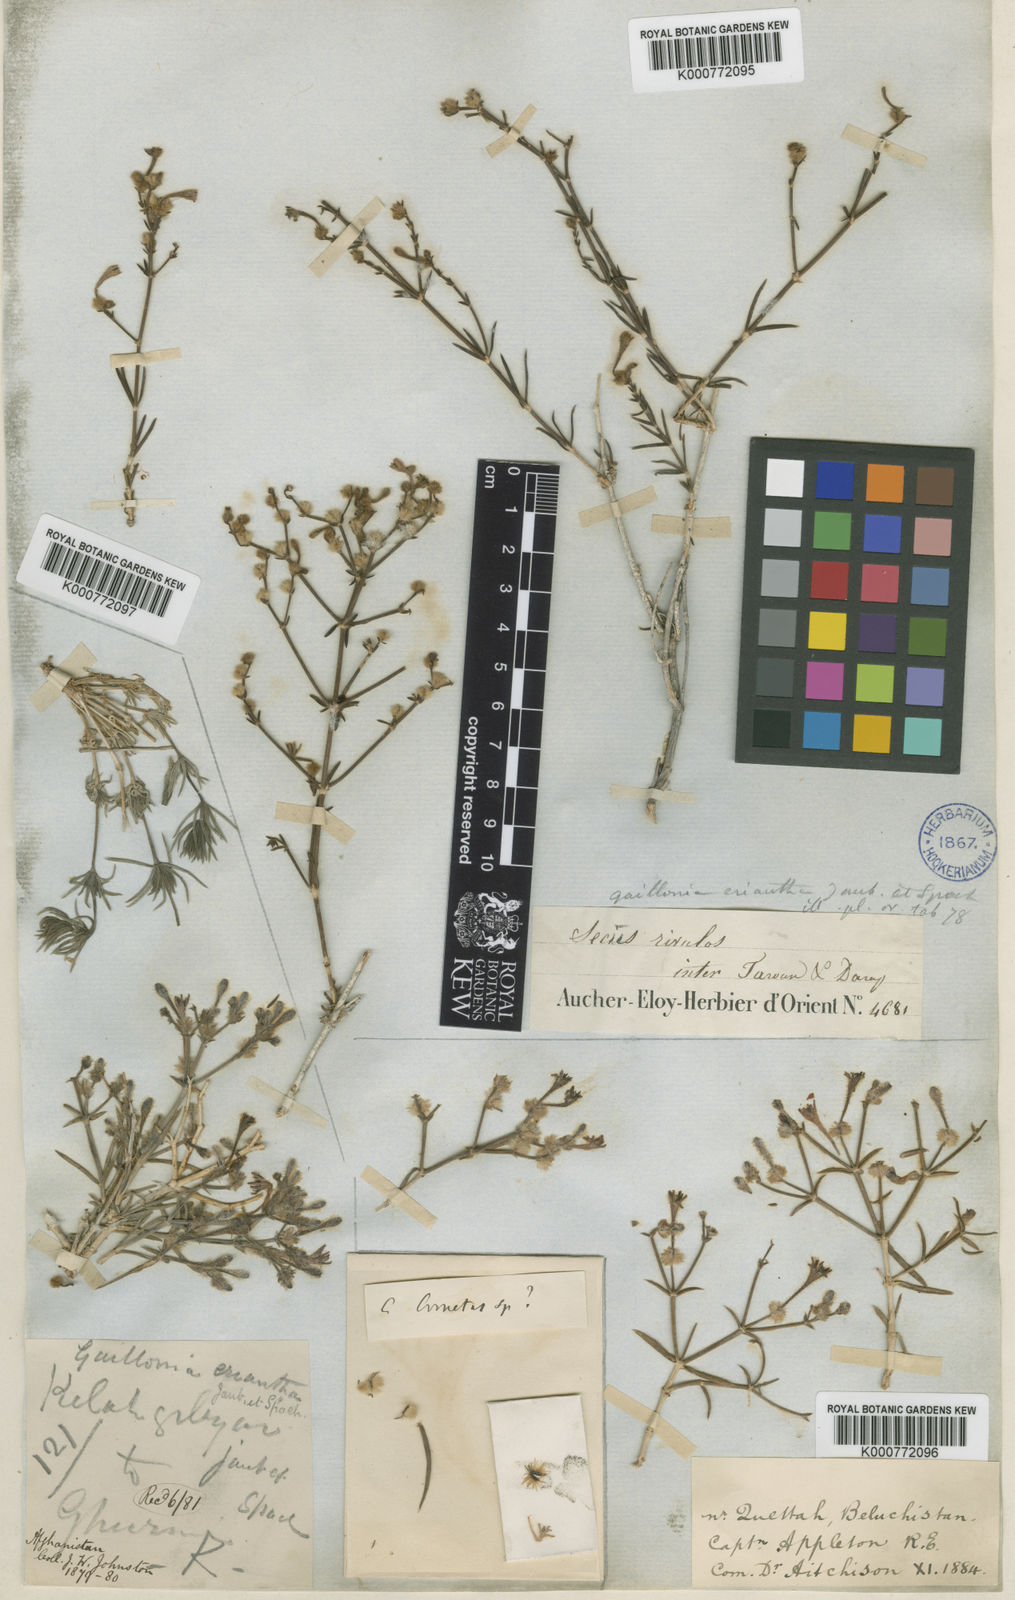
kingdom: Plantae
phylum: Tracheophyta
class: Magnoliopsida
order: Gentianales
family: Rubiaceae
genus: Plocama
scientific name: Plocama eriantha
